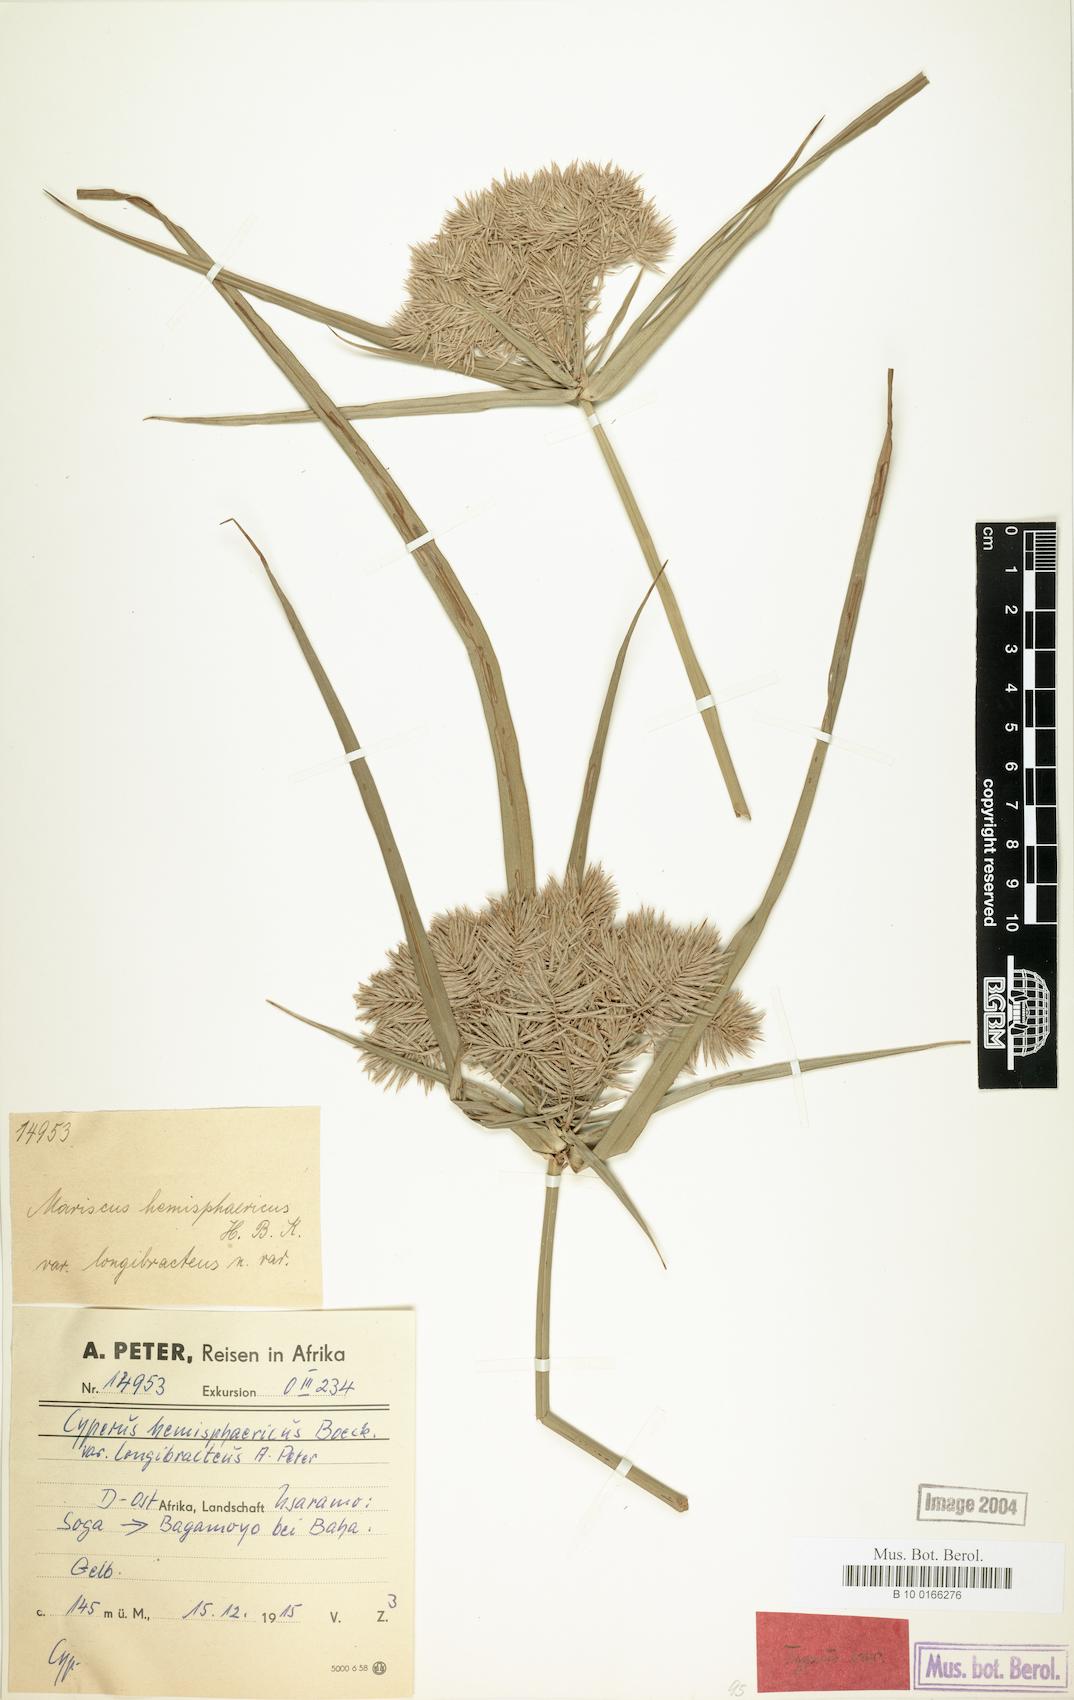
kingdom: Plantae
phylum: Tracheophyta
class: Liliopsida
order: Poales
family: Cyperaceae
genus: Cyperus
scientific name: Cyperus hemisphaericus
